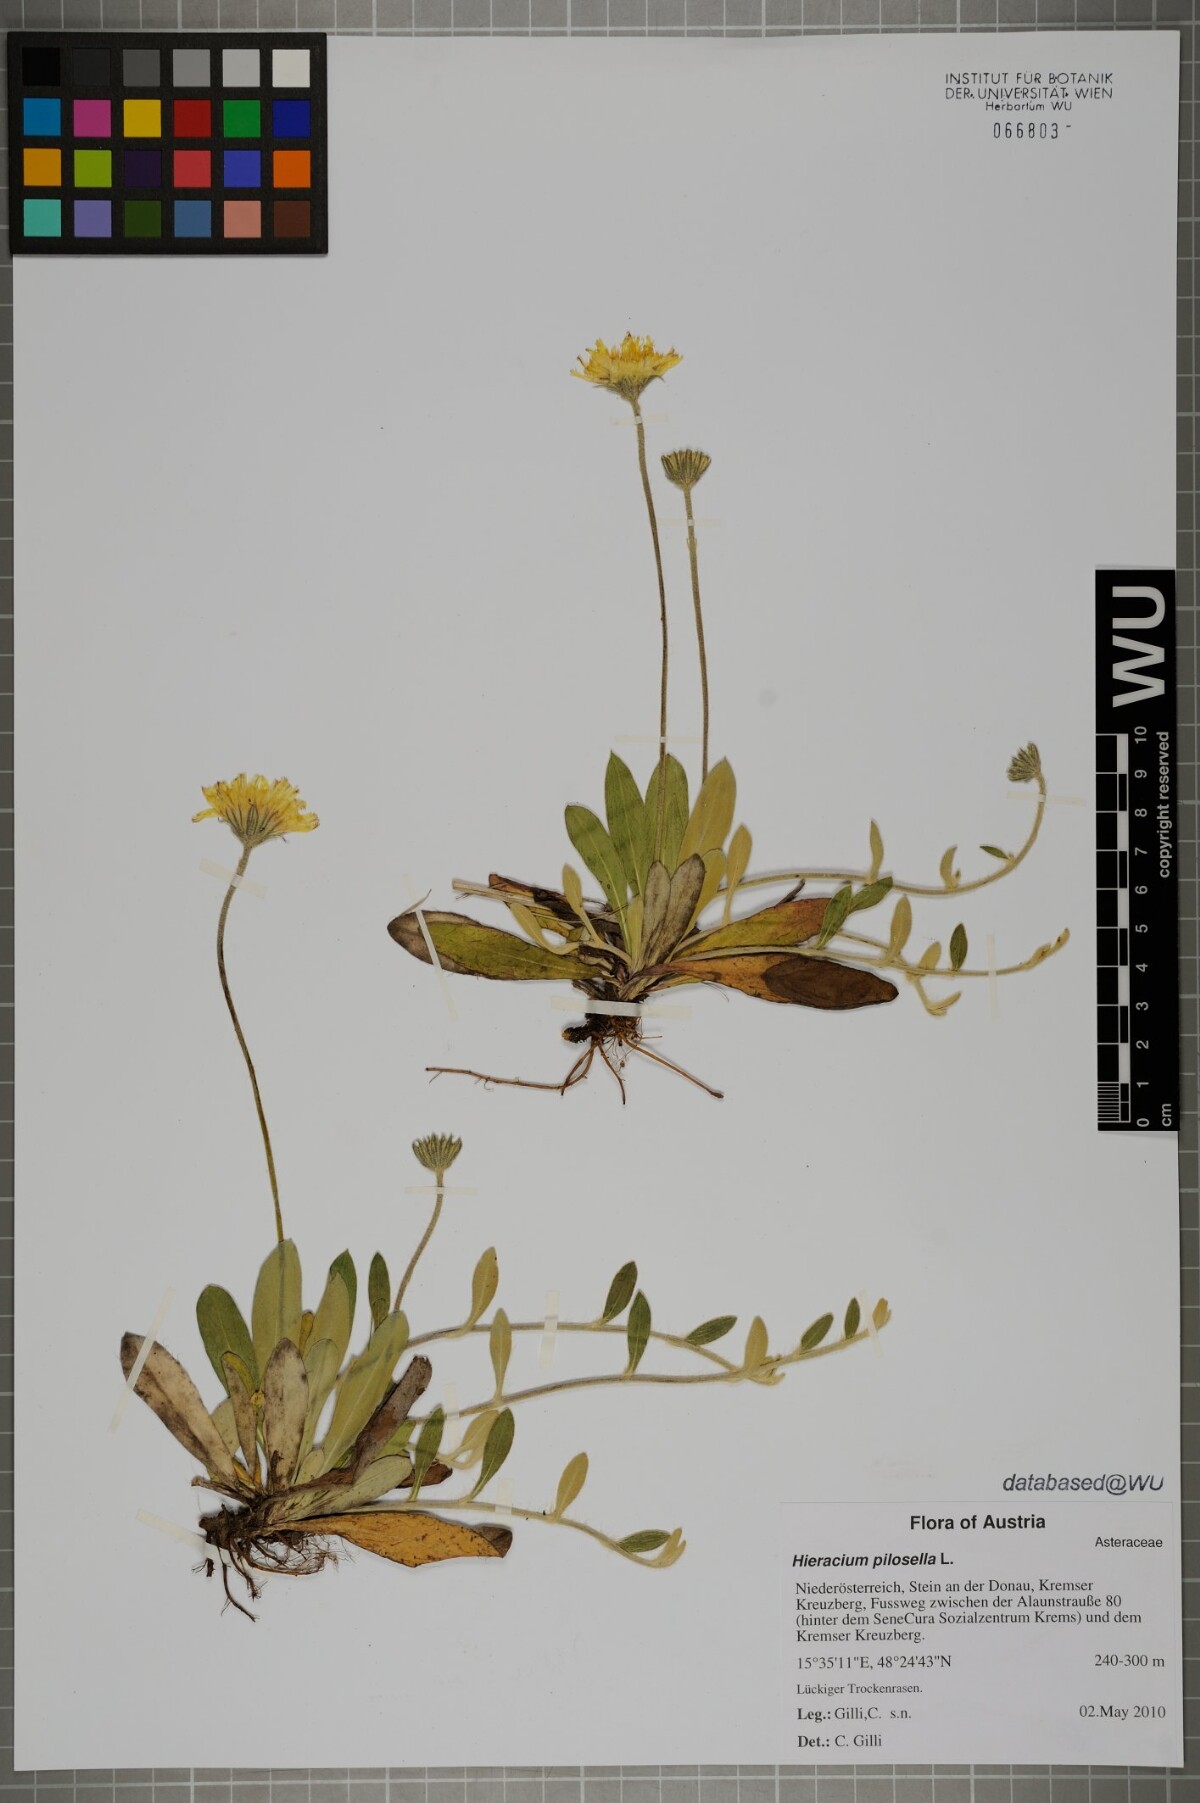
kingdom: Plantae
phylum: Tracheophyta
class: Magnoliopsida
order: Asterales
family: Asteraceae
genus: Pilosella
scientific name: Pilosella officinarum
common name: Mouse-ear hawkweed
